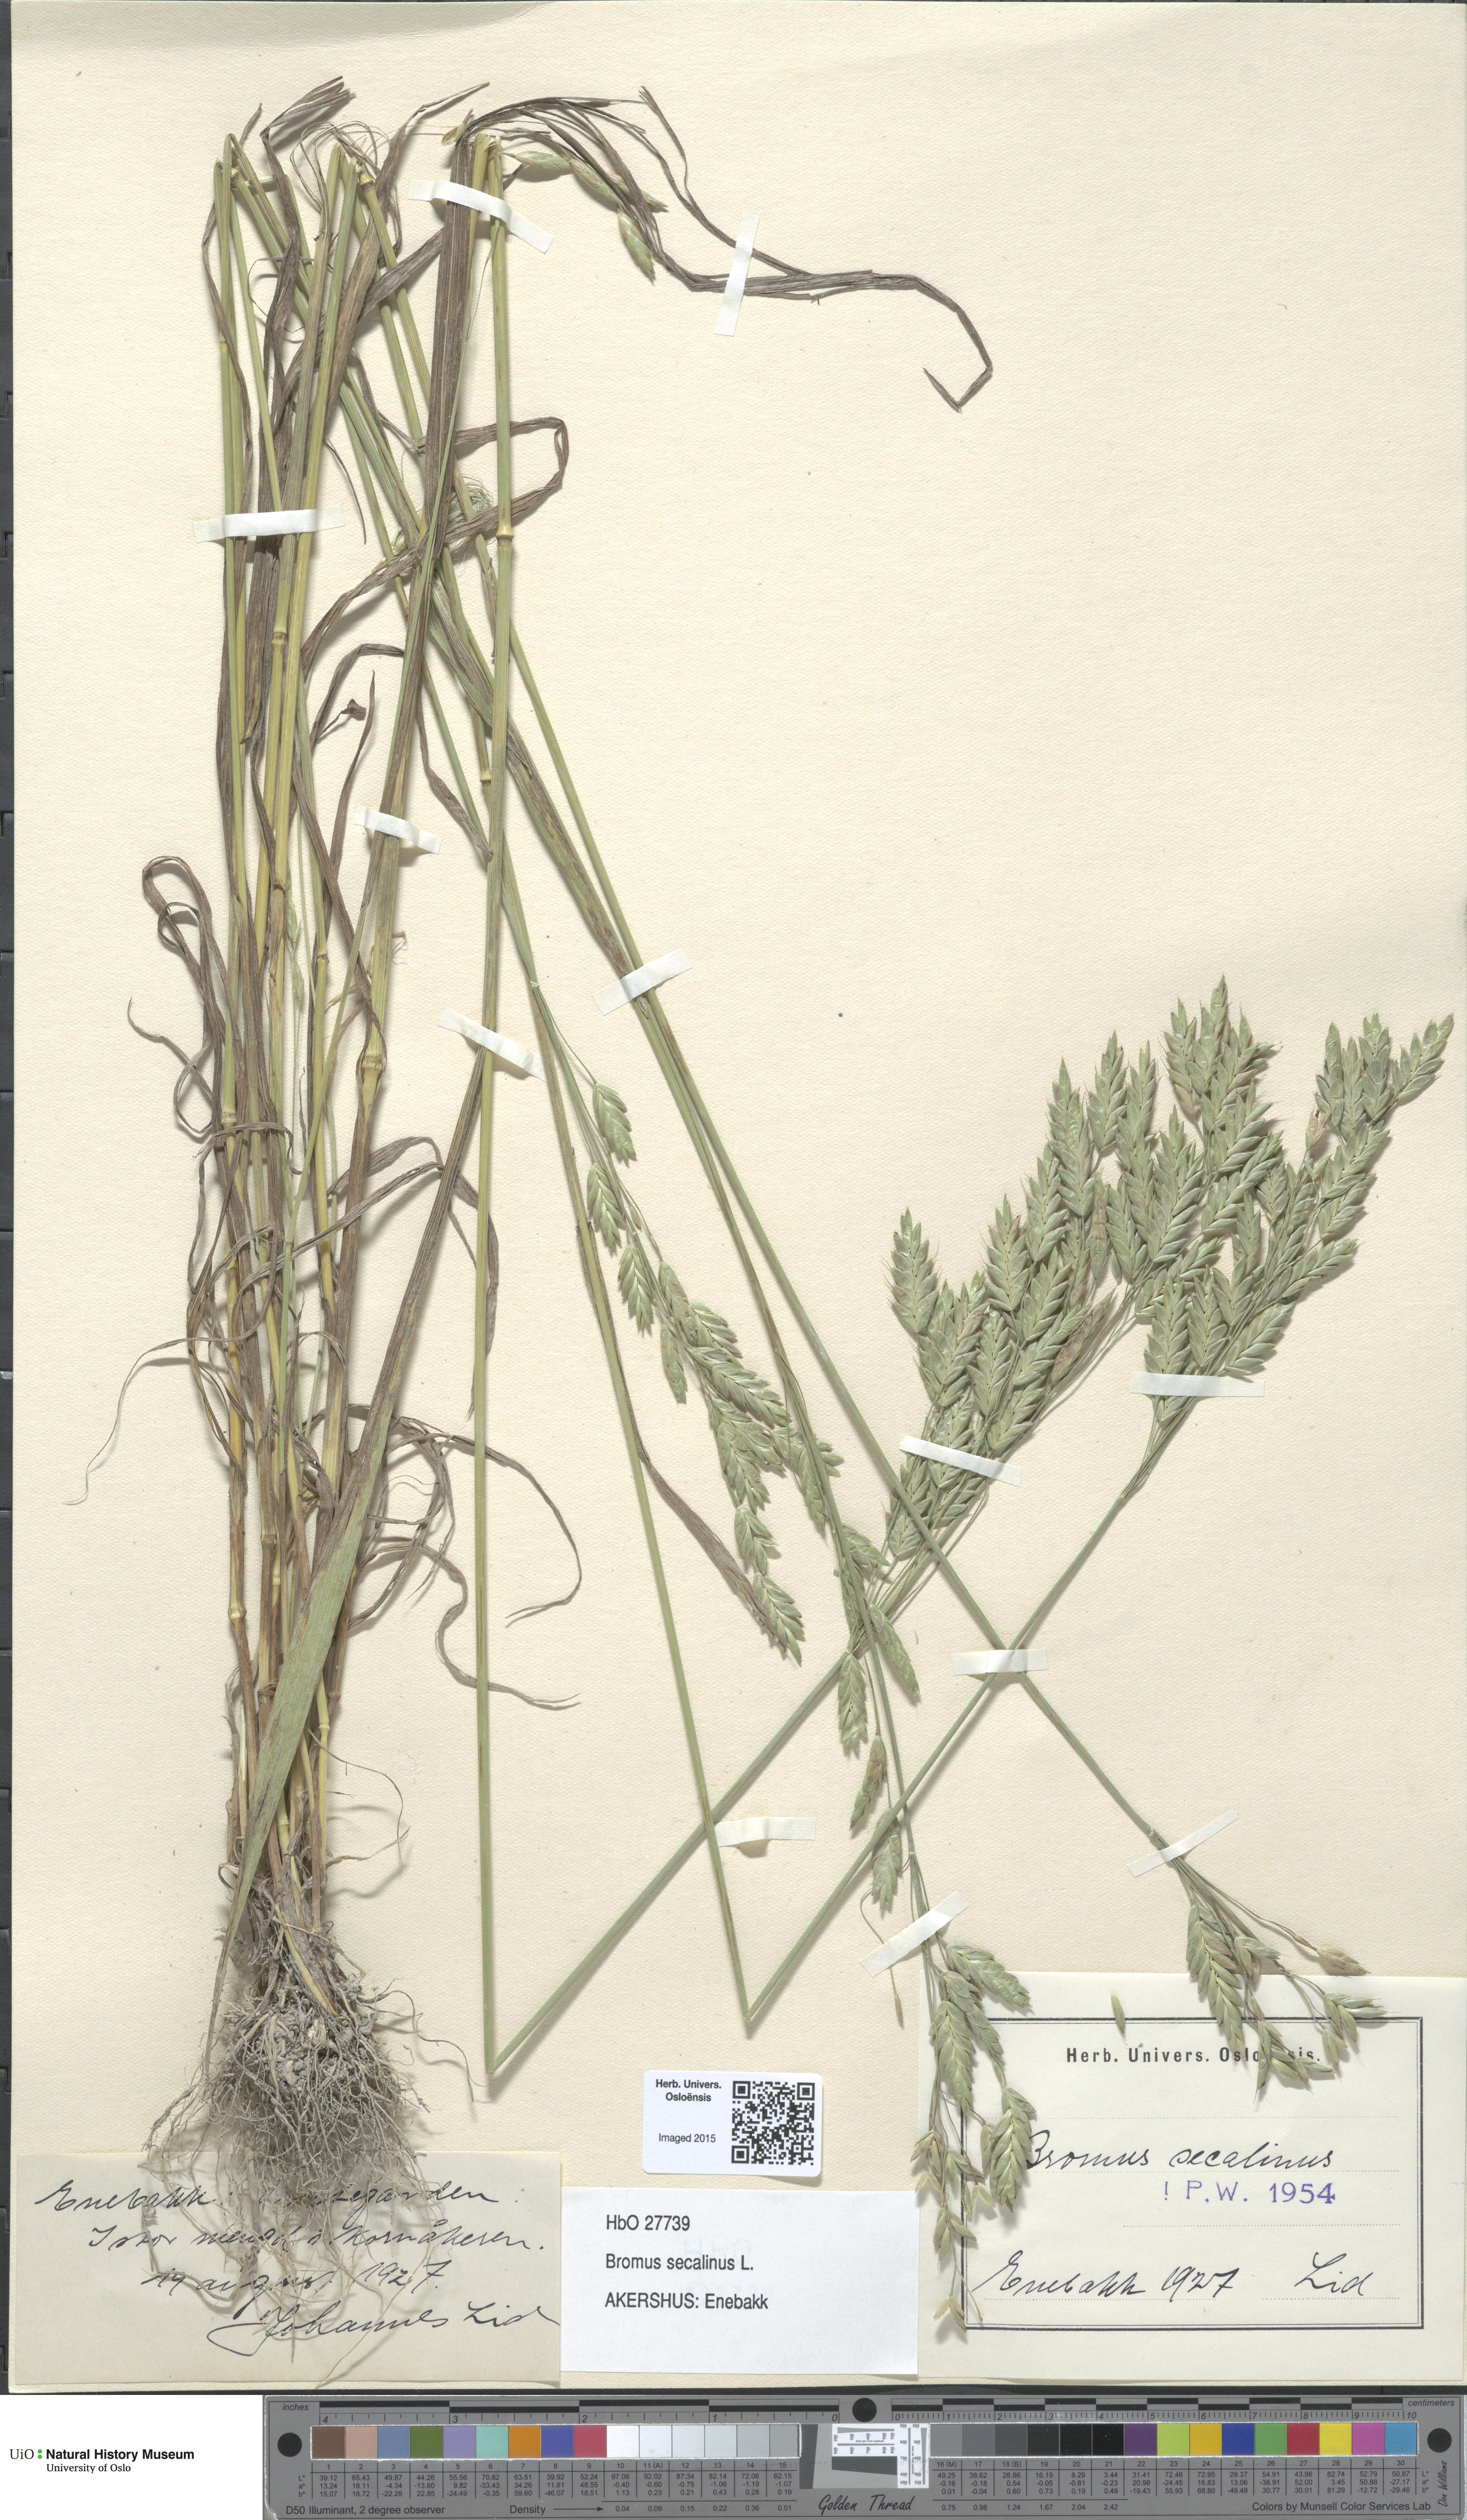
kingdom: Plantae
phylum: Tracheophyta
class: Liliopsida
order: Poales
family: Poaceae
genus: Bromus
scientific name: Bromus secalinus
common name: Rye brome
